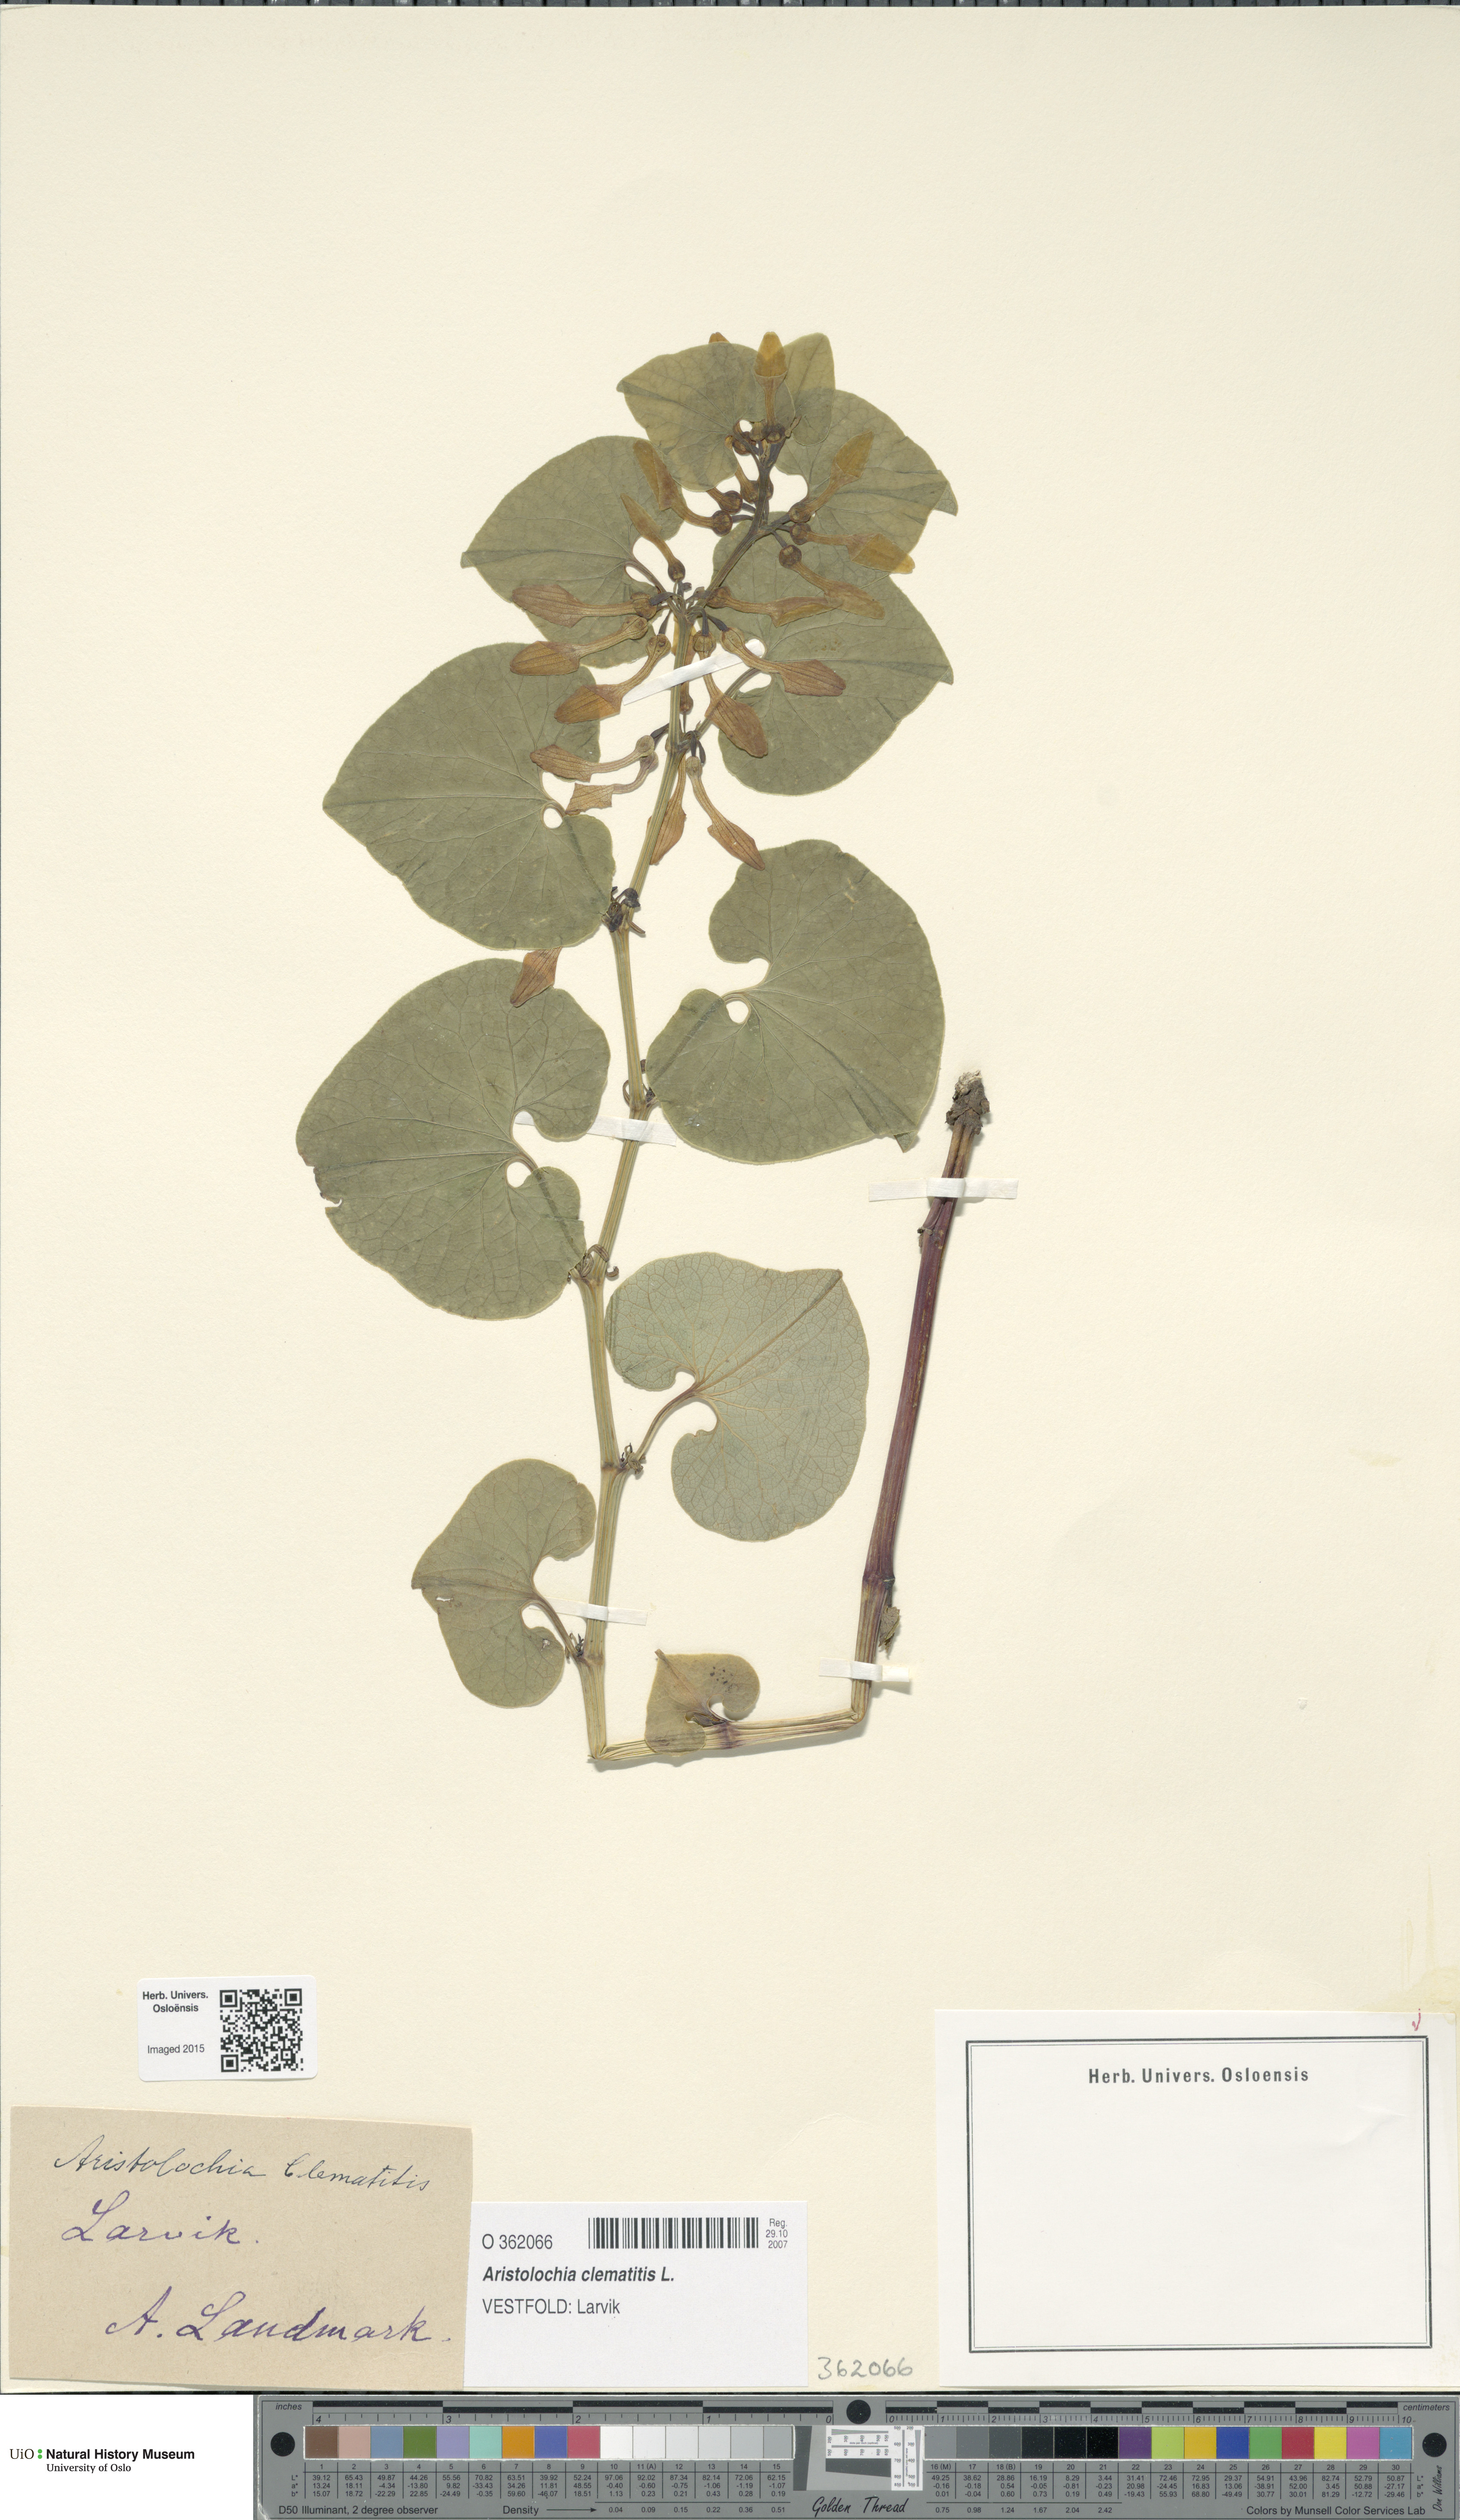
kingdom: Plantae
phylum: Tracheophyta
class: Magnoliopsida
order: Piperales
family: Aristolochiaceae
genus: Aristolochia
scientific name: Aristolochia clematitis
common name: Birthwort
